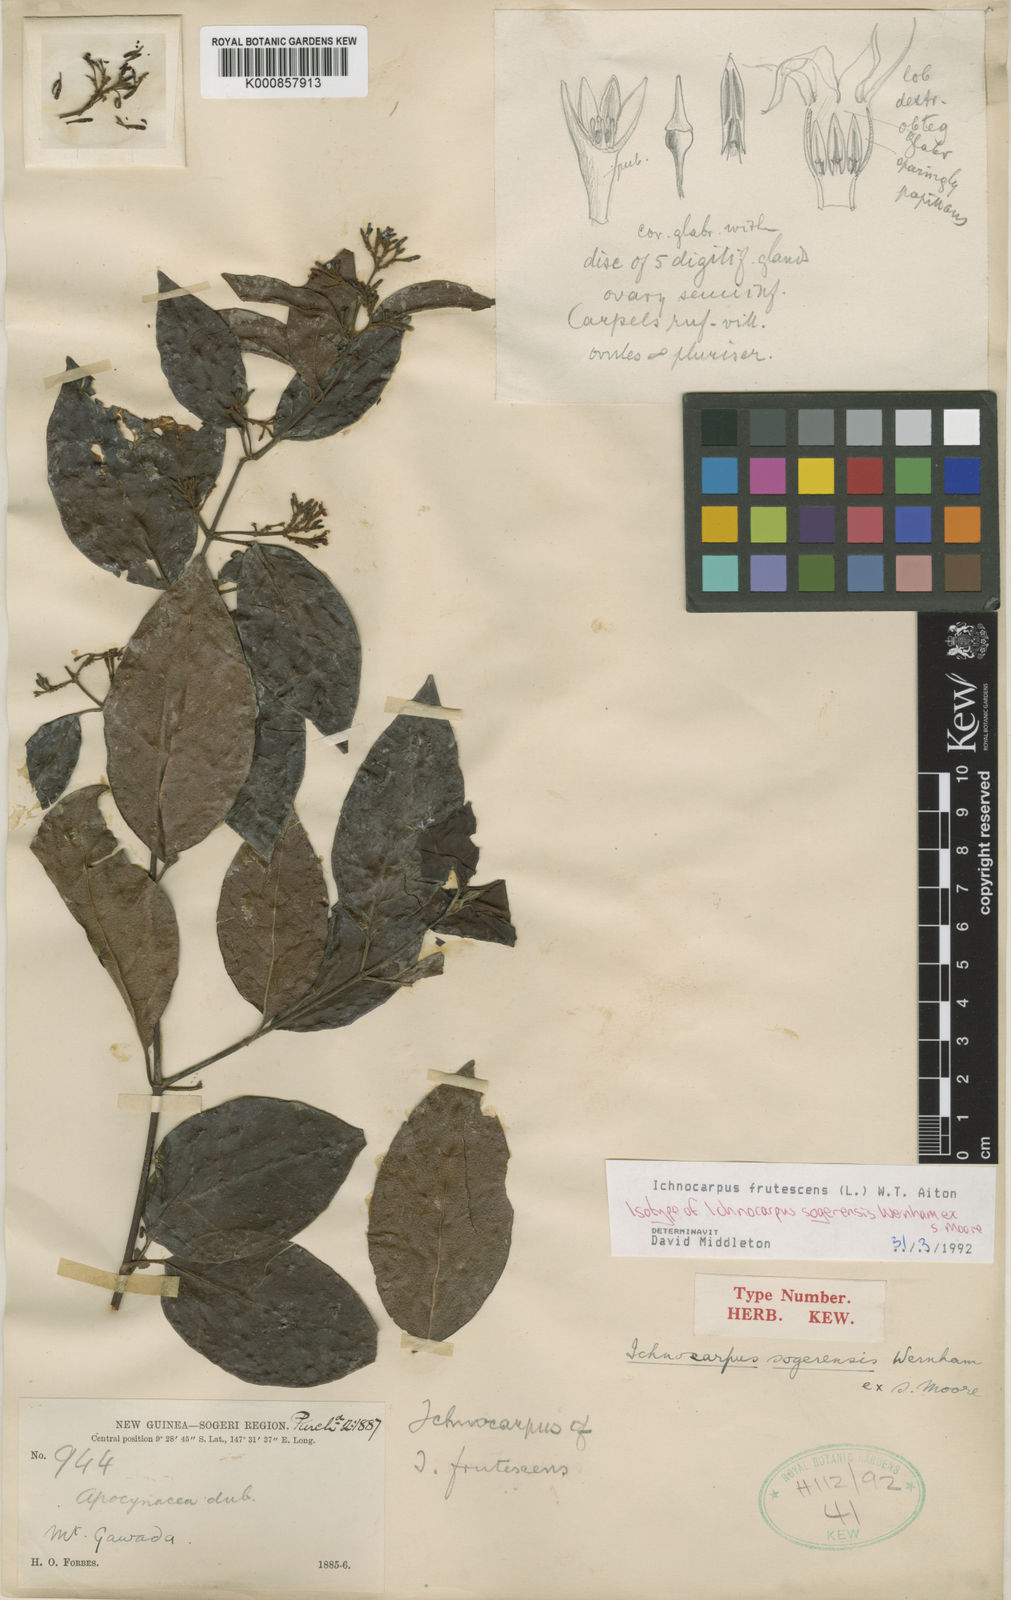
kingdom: Plantae
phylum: Tracheophyta
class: Magnoliopsida
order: Gentianales
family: Apocynaceae
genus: Ichnocarpus
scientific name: Ichnocarpus frutescens
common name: Ichnocarpus
